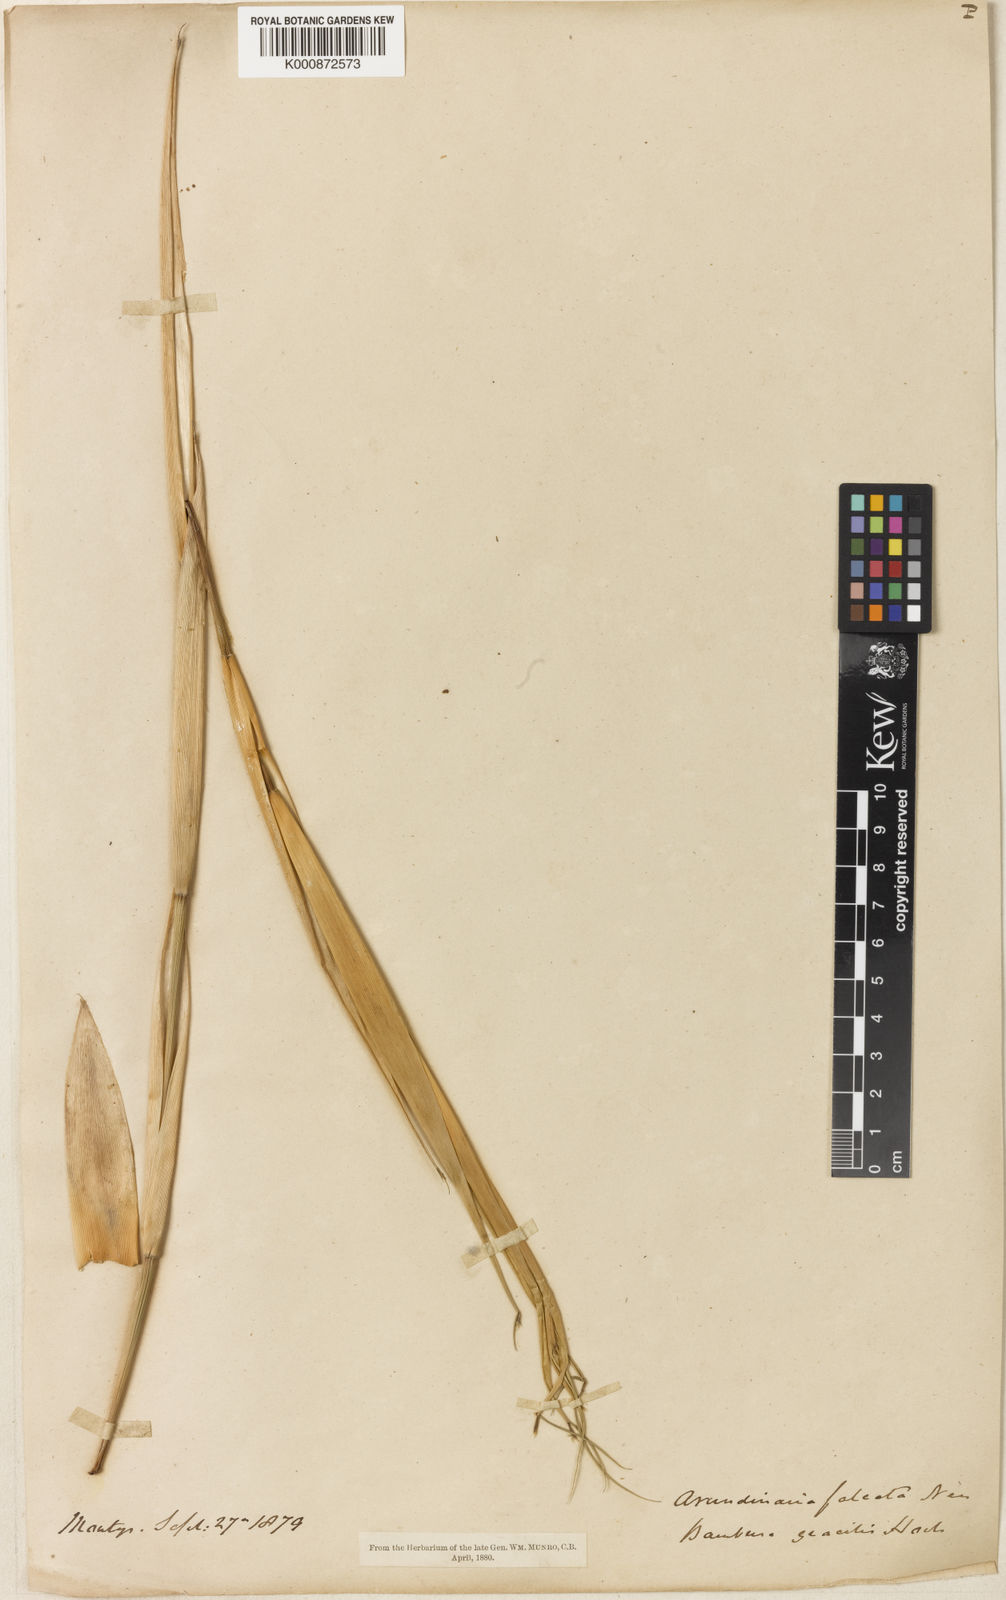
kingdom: Plantae
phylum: Tracheophyta
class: Liliopsida
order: Poales
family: Poaceae
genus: Drepanostachyum
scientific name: Drepanostachyum falcatum
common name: Himalayan bamboo
